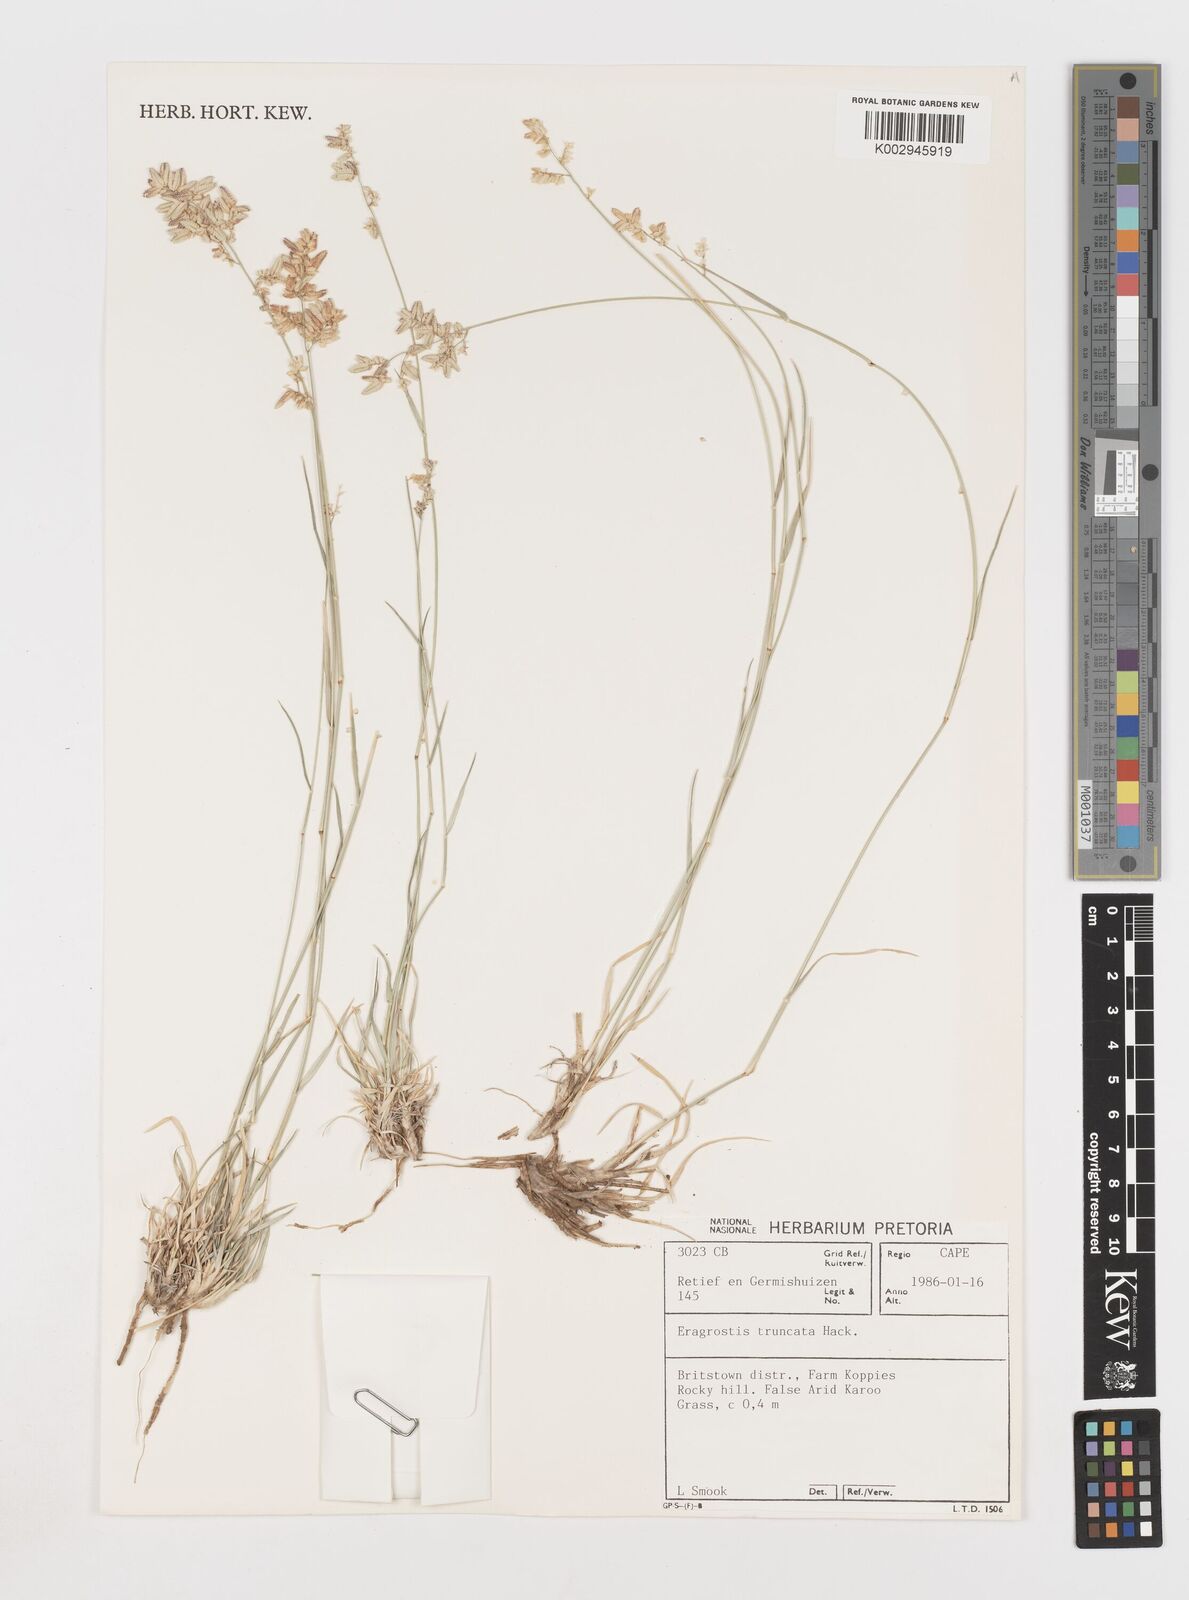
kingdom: Plantae
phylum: Tracheophyta
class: Liliopsida
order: Poales
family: Poaceae
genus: Eragrostis
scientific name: Eragrostis truncata
